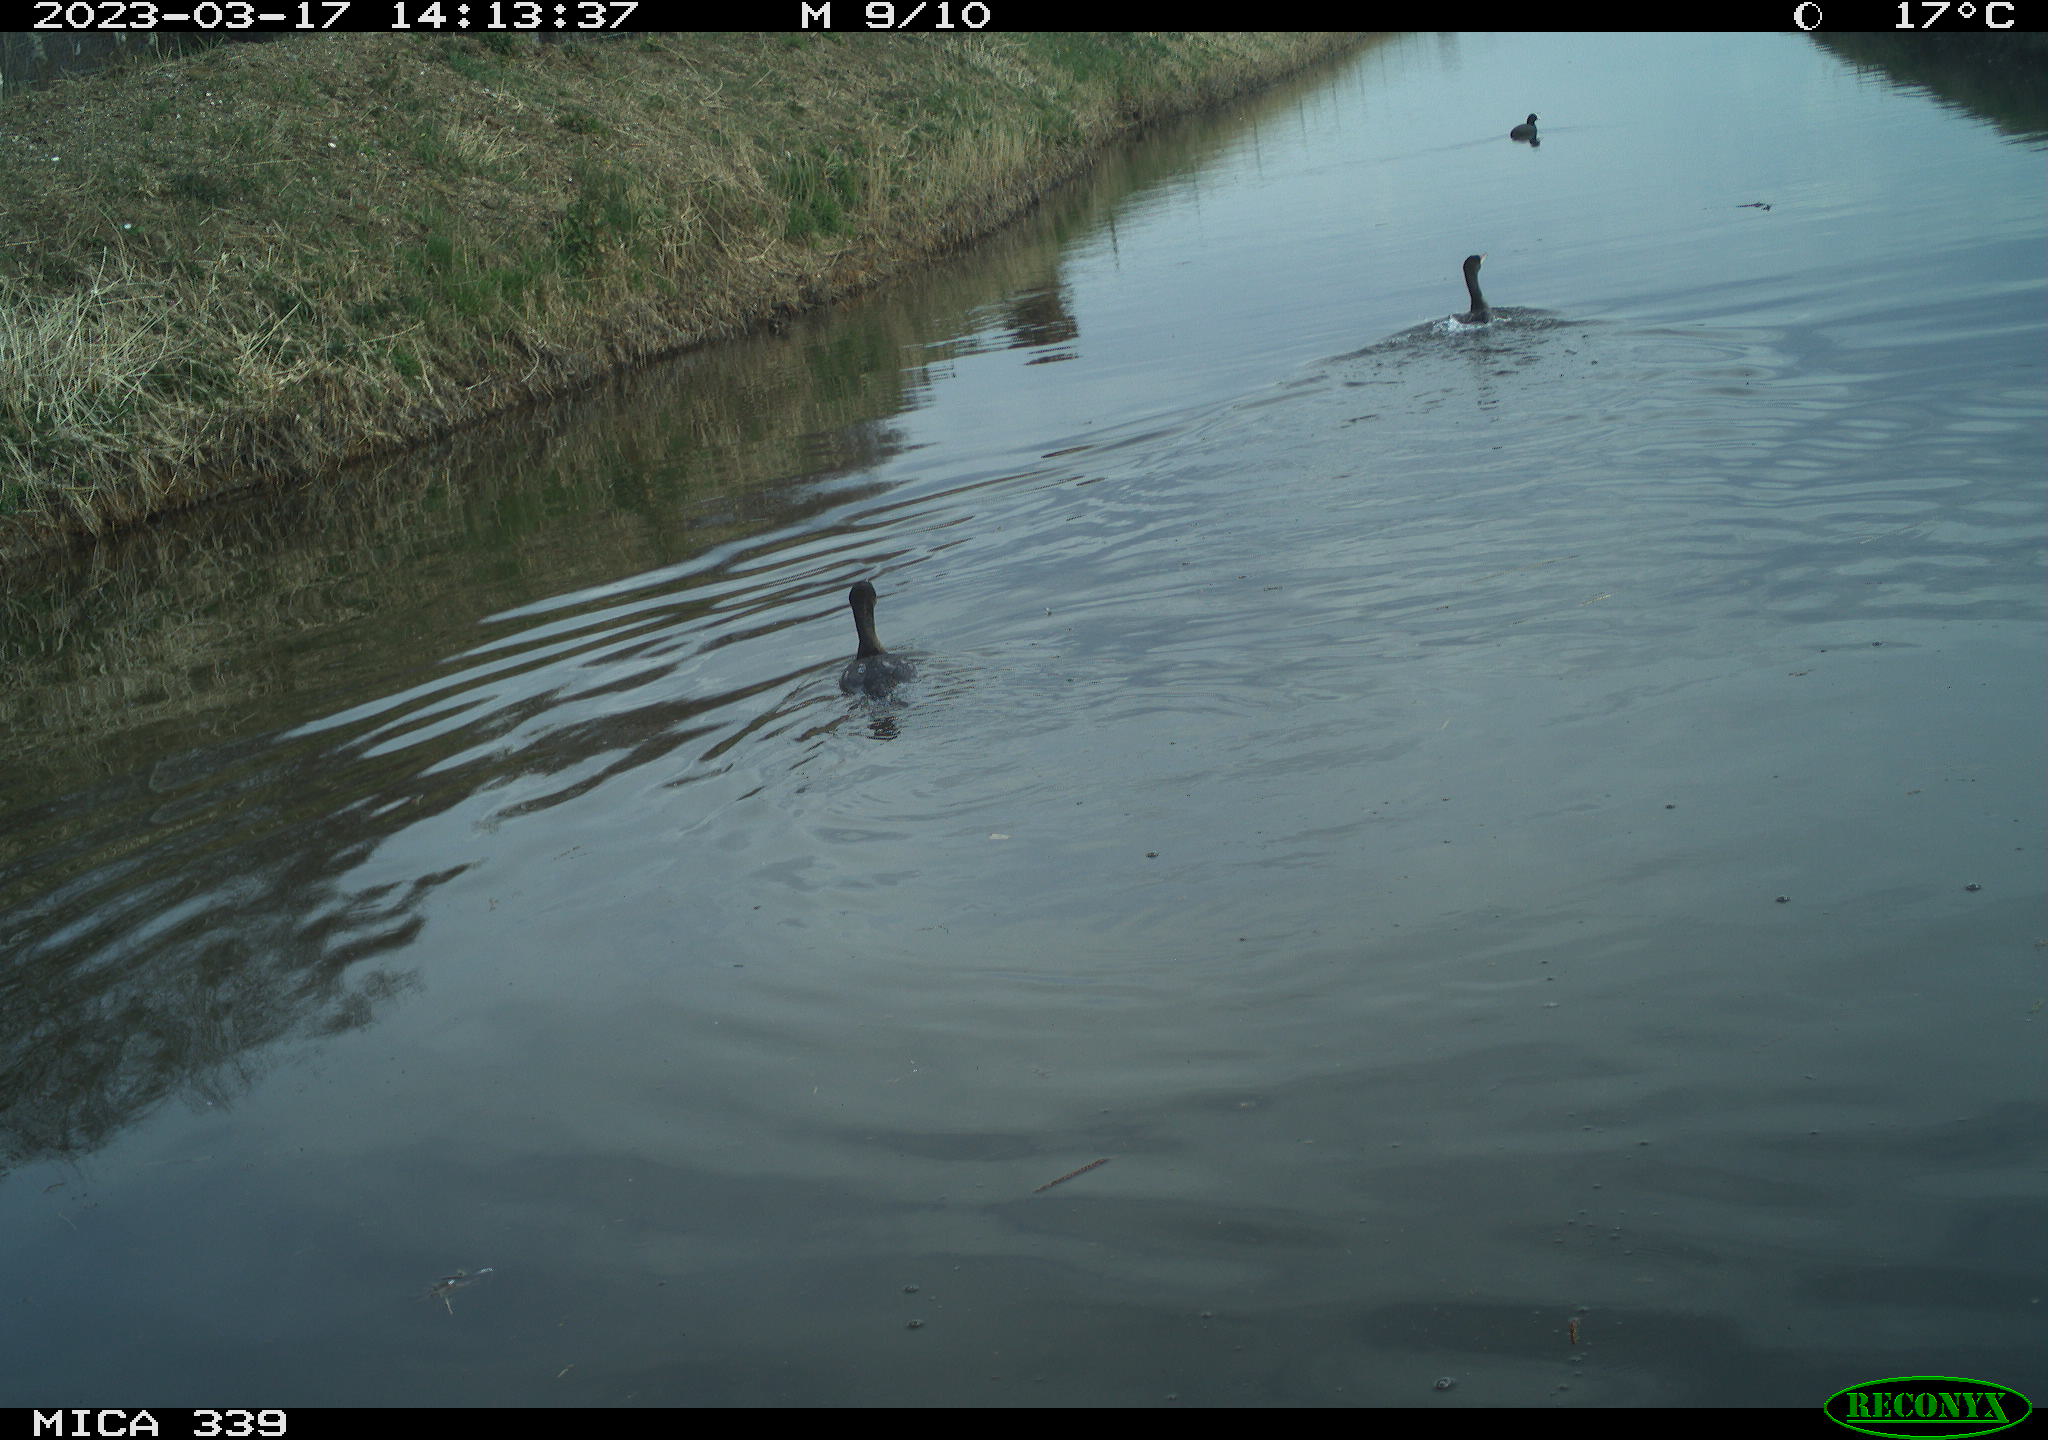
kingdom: Animalia
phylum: Chordata
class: Aves
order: Anseriformes
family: Anatidae
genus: Anas
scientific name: Anas
